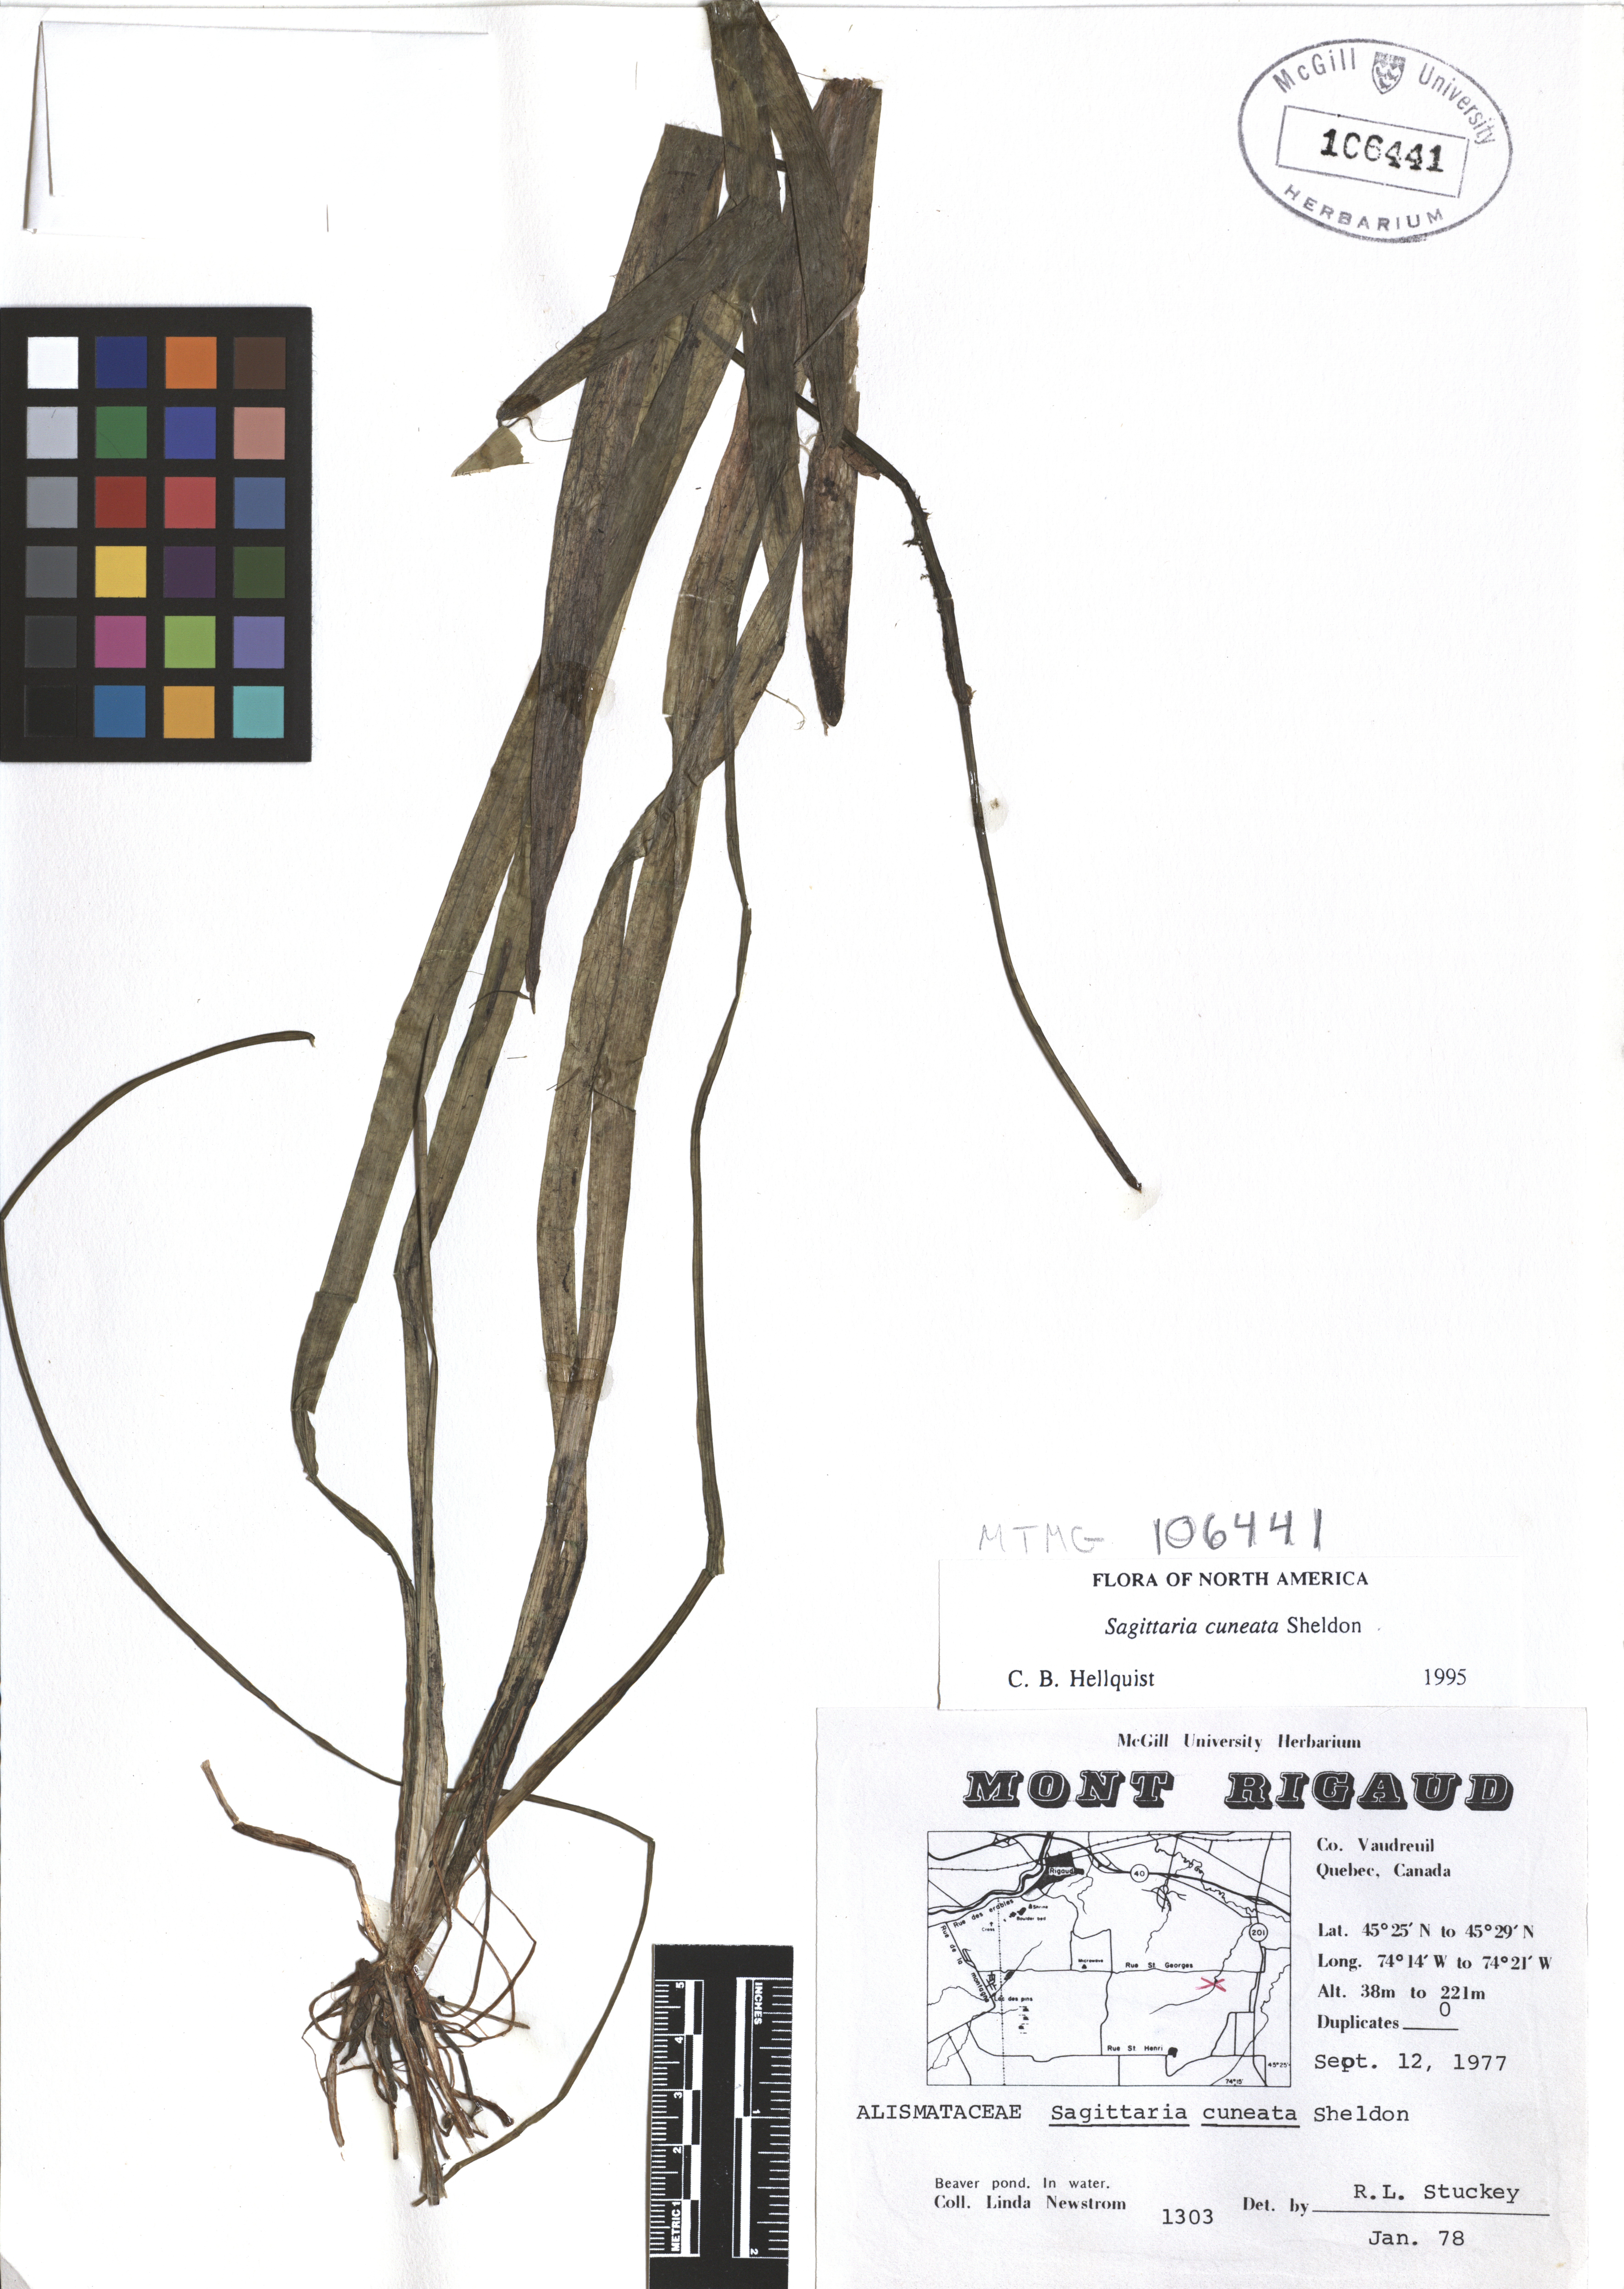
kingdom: Plantae
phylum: Tracheophyta
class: Liliopsida
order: Alismatales
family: Alismataceae
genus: Sagittaria
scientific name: Sagittaria cuneata
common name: Northern arrowhead
